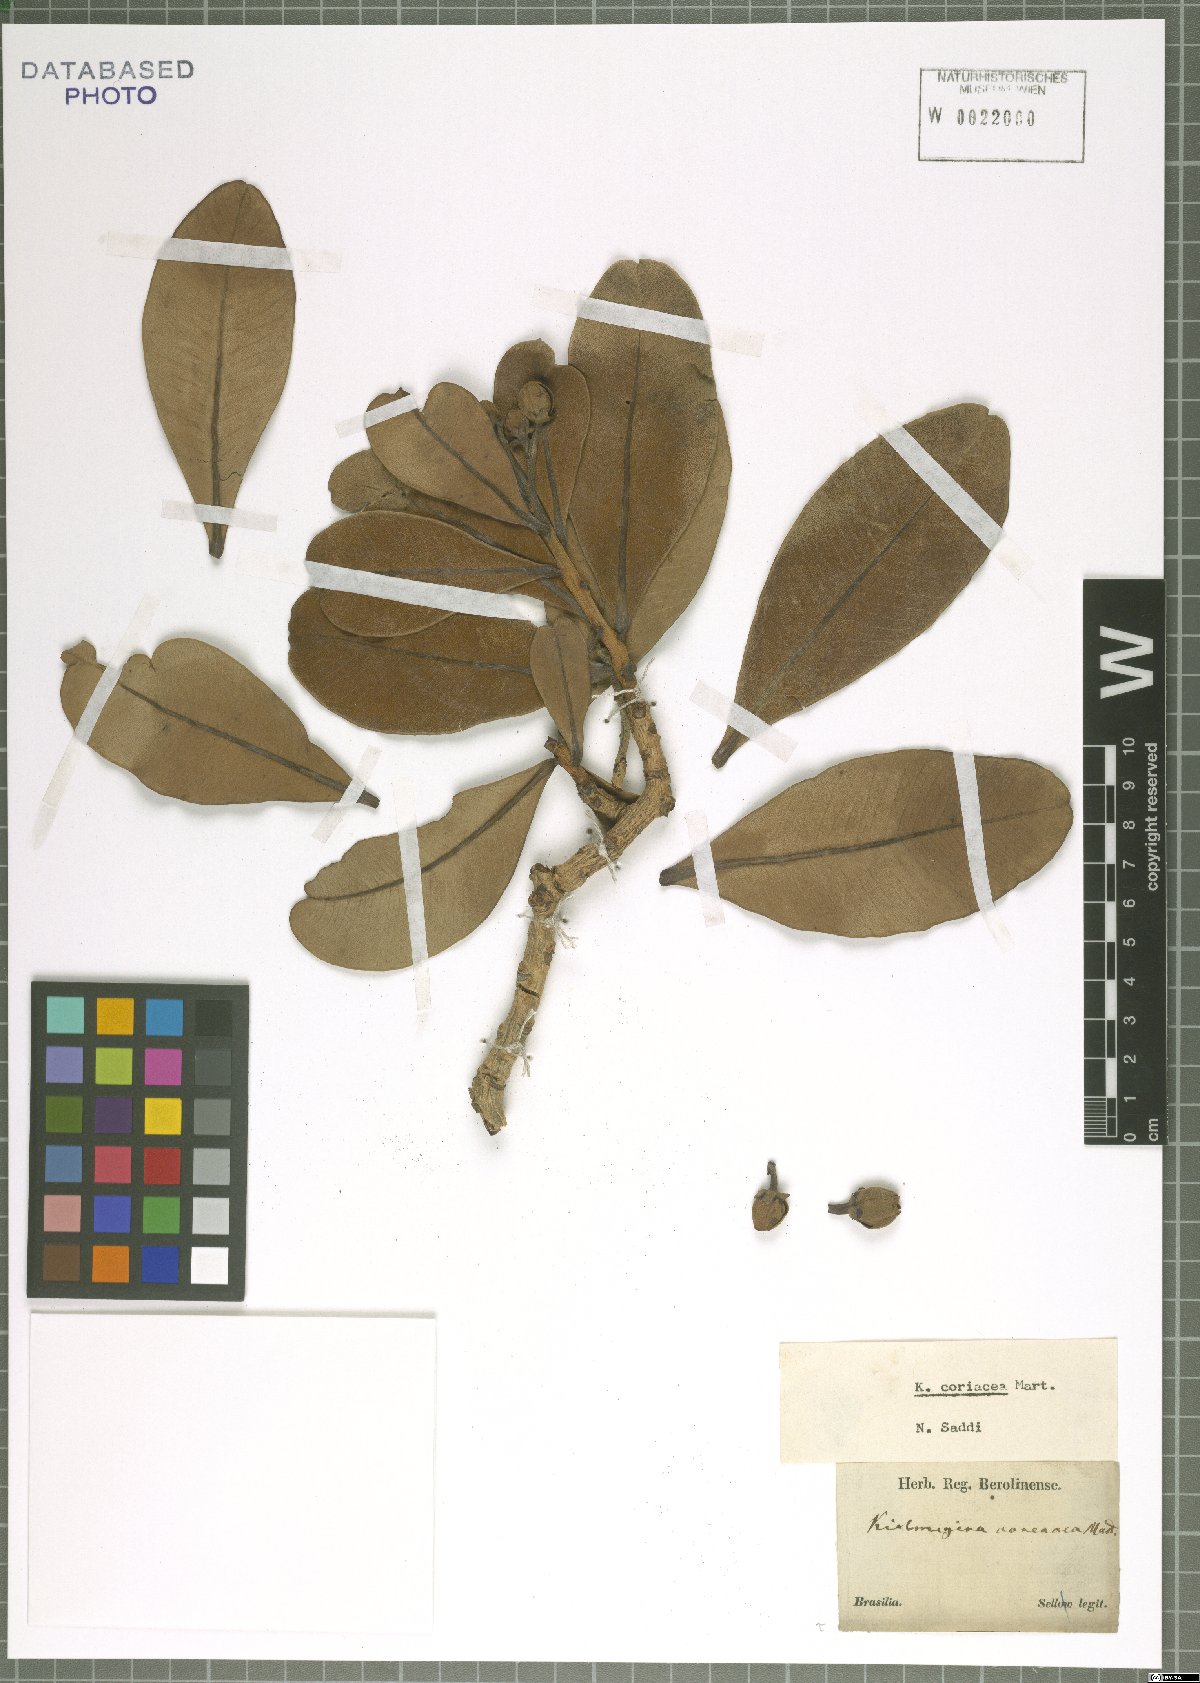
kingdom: Plantae
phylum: Tracheophyta
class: Magnoliopsida
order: Malpighiales
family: Calophyllaceae
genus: Kielmeyera
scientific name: Kielmeyera coriacea
